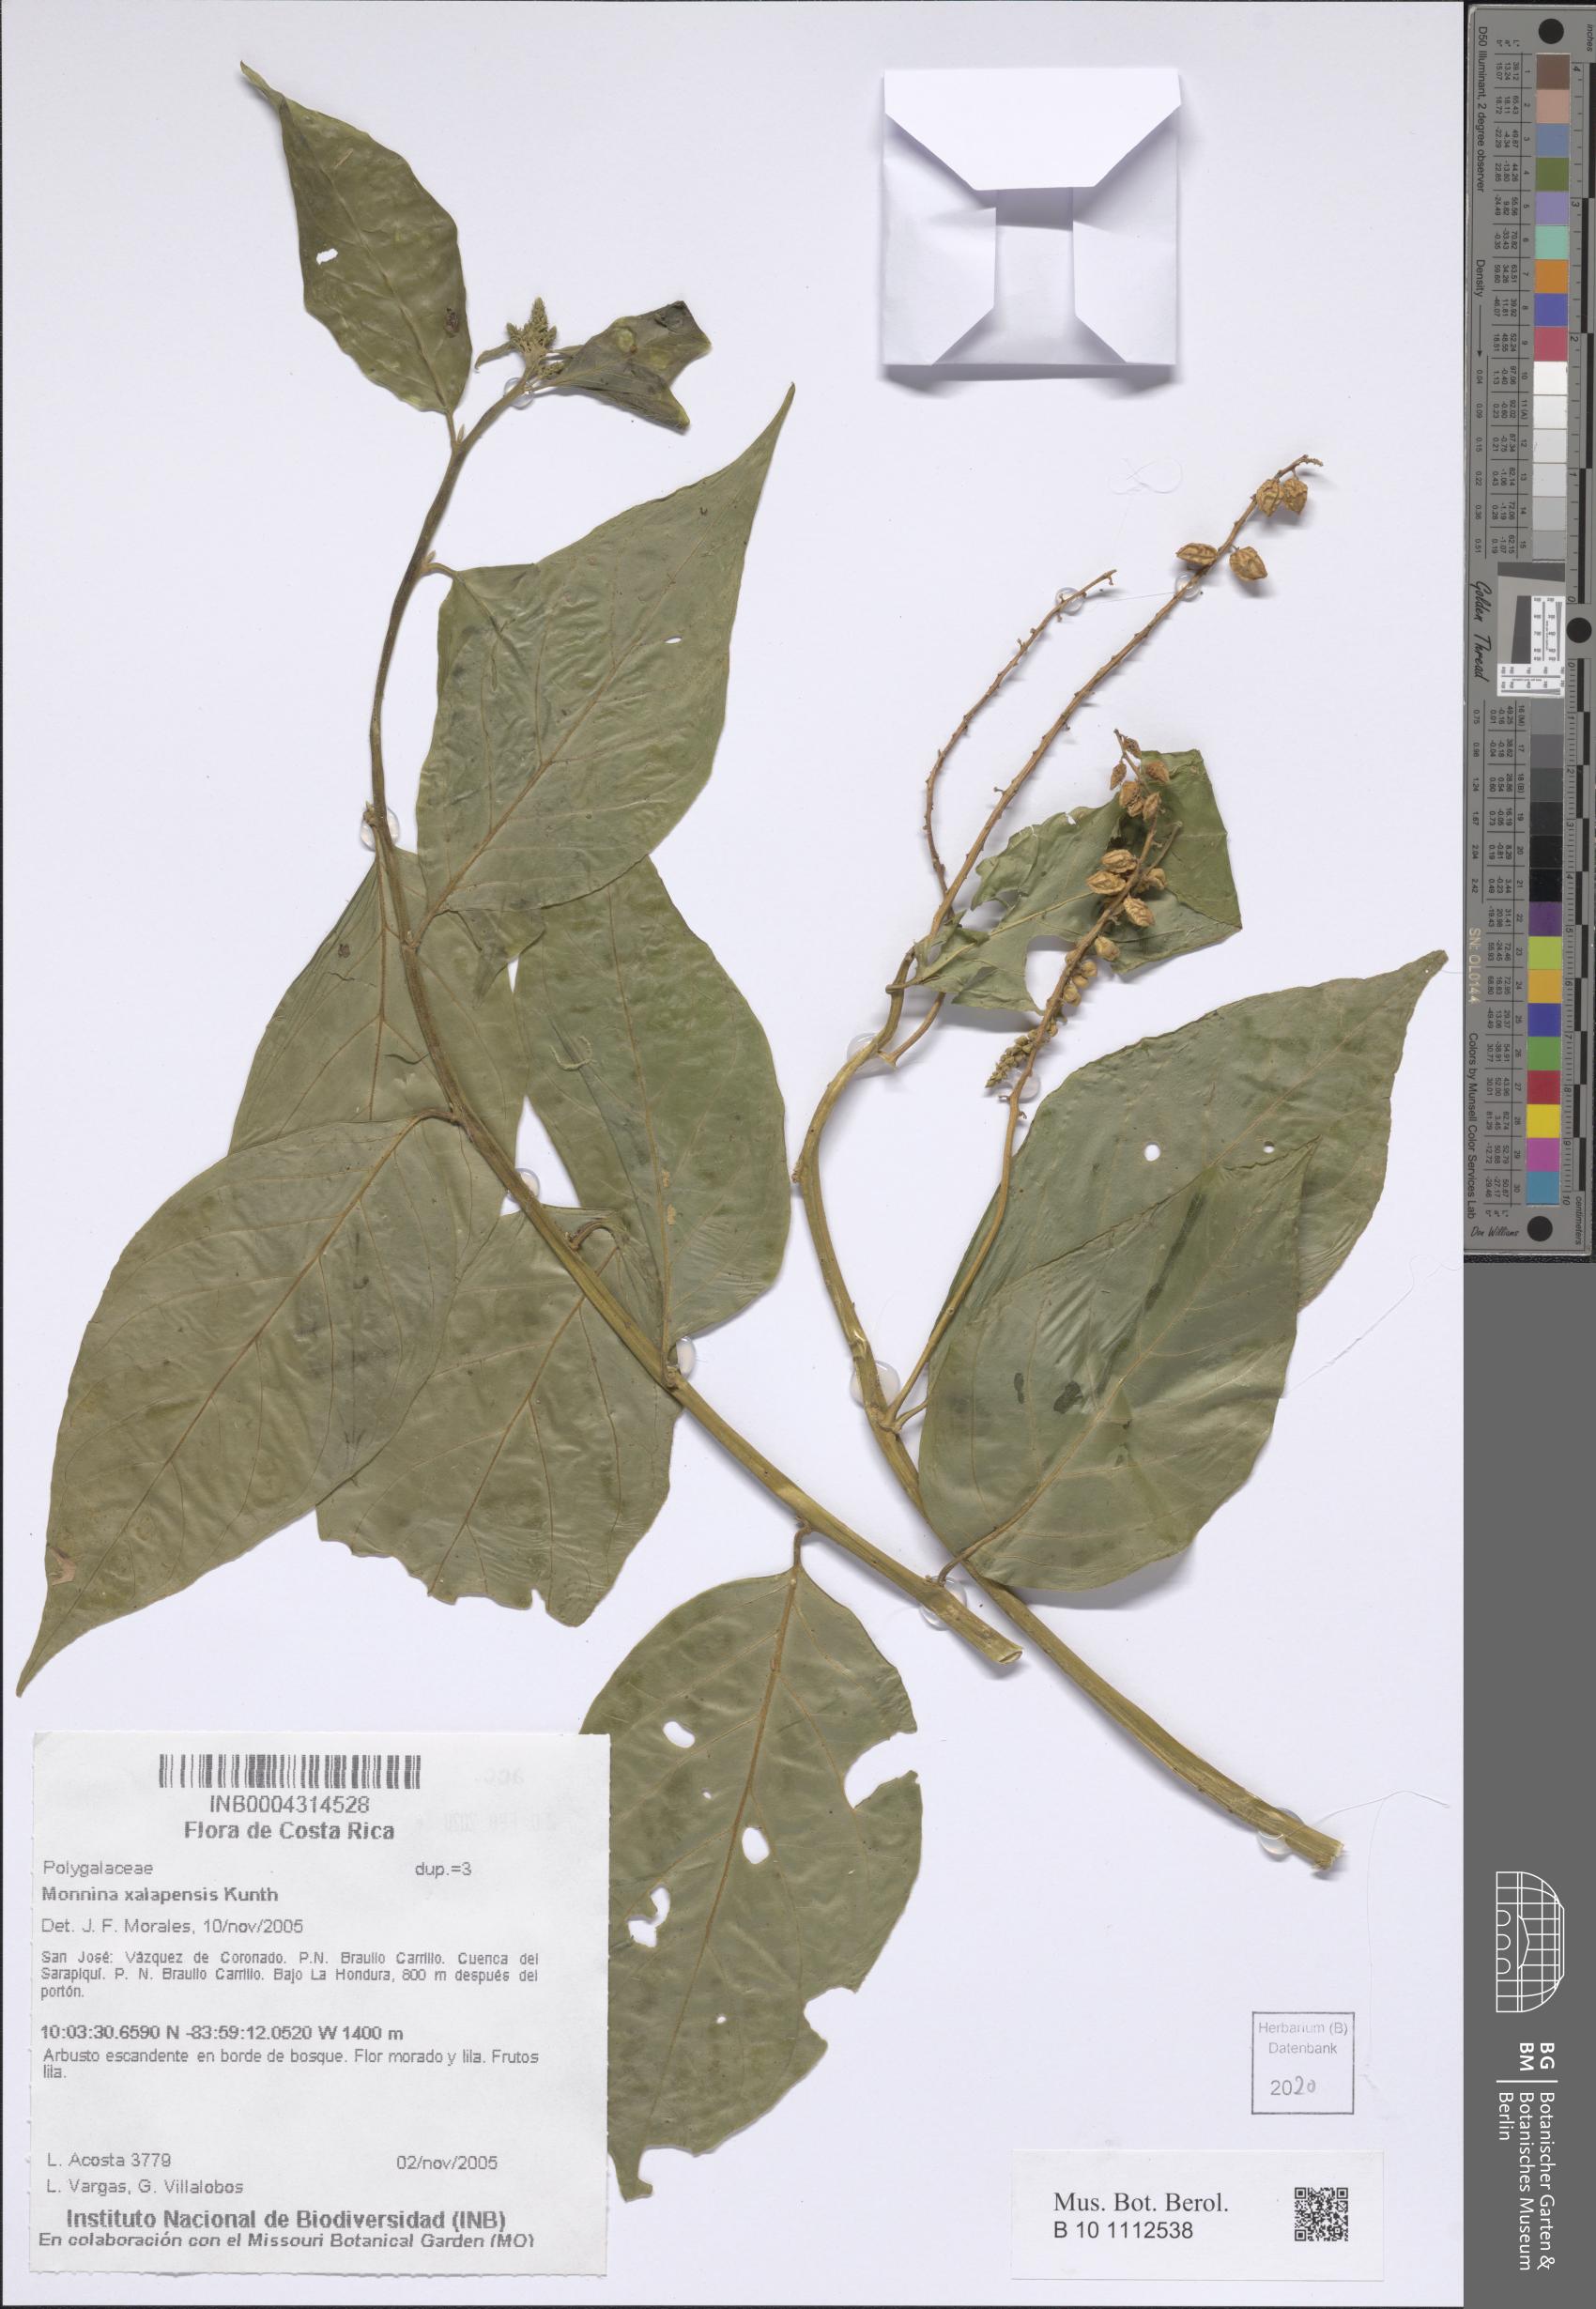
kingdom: Plantae
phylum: Tracheophyta
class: Magnoliopsida
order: Fabales
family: Polygalaceae
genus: Monnina
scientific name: Monnina xalapensis
